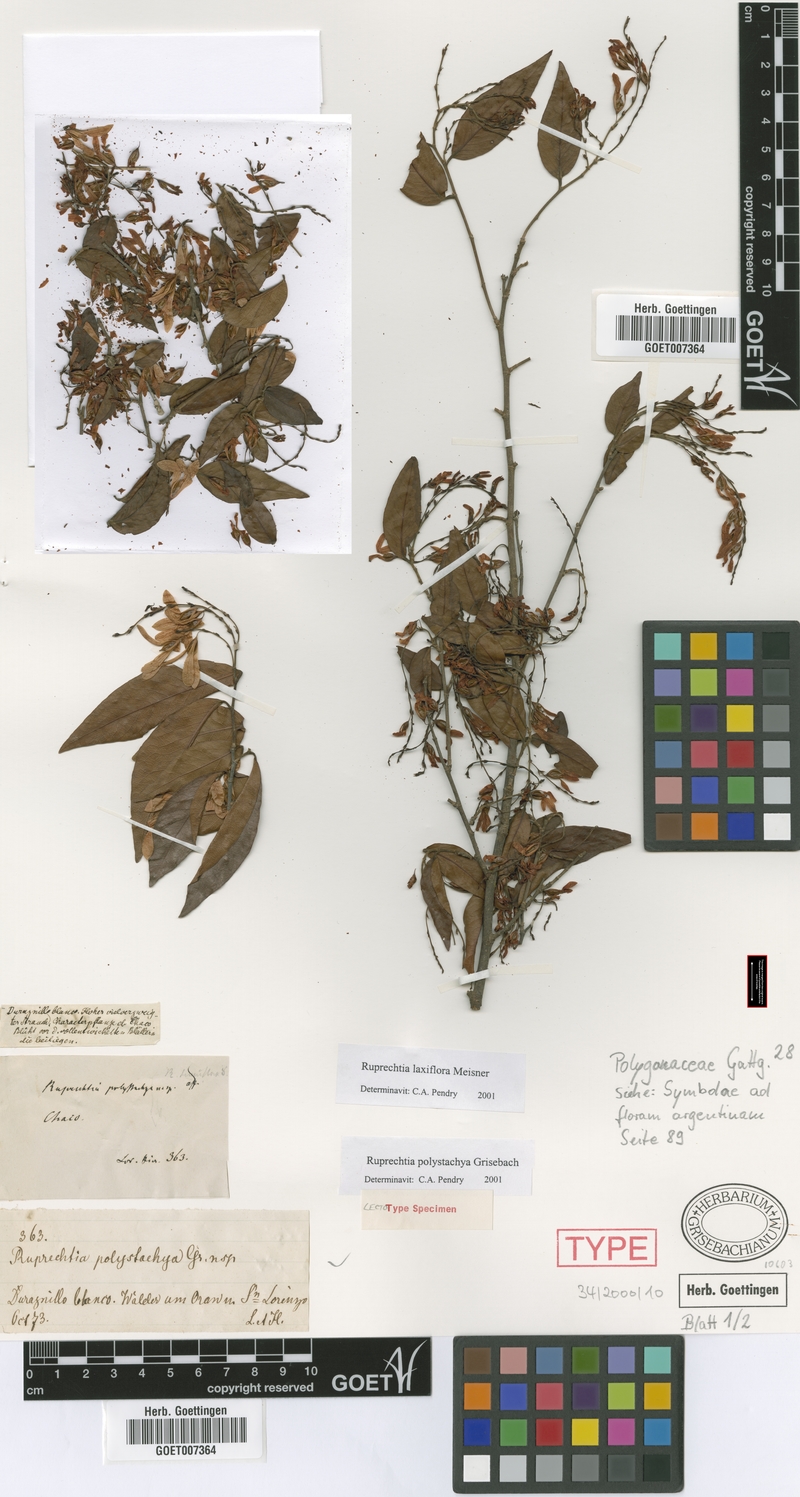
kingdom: Plantae
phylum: Tracheophyta
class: Magnoliopsida
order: Caryophyllales
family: Polygonaceae
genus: Ruprechtia
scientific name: Ruprechtia laxiflora
